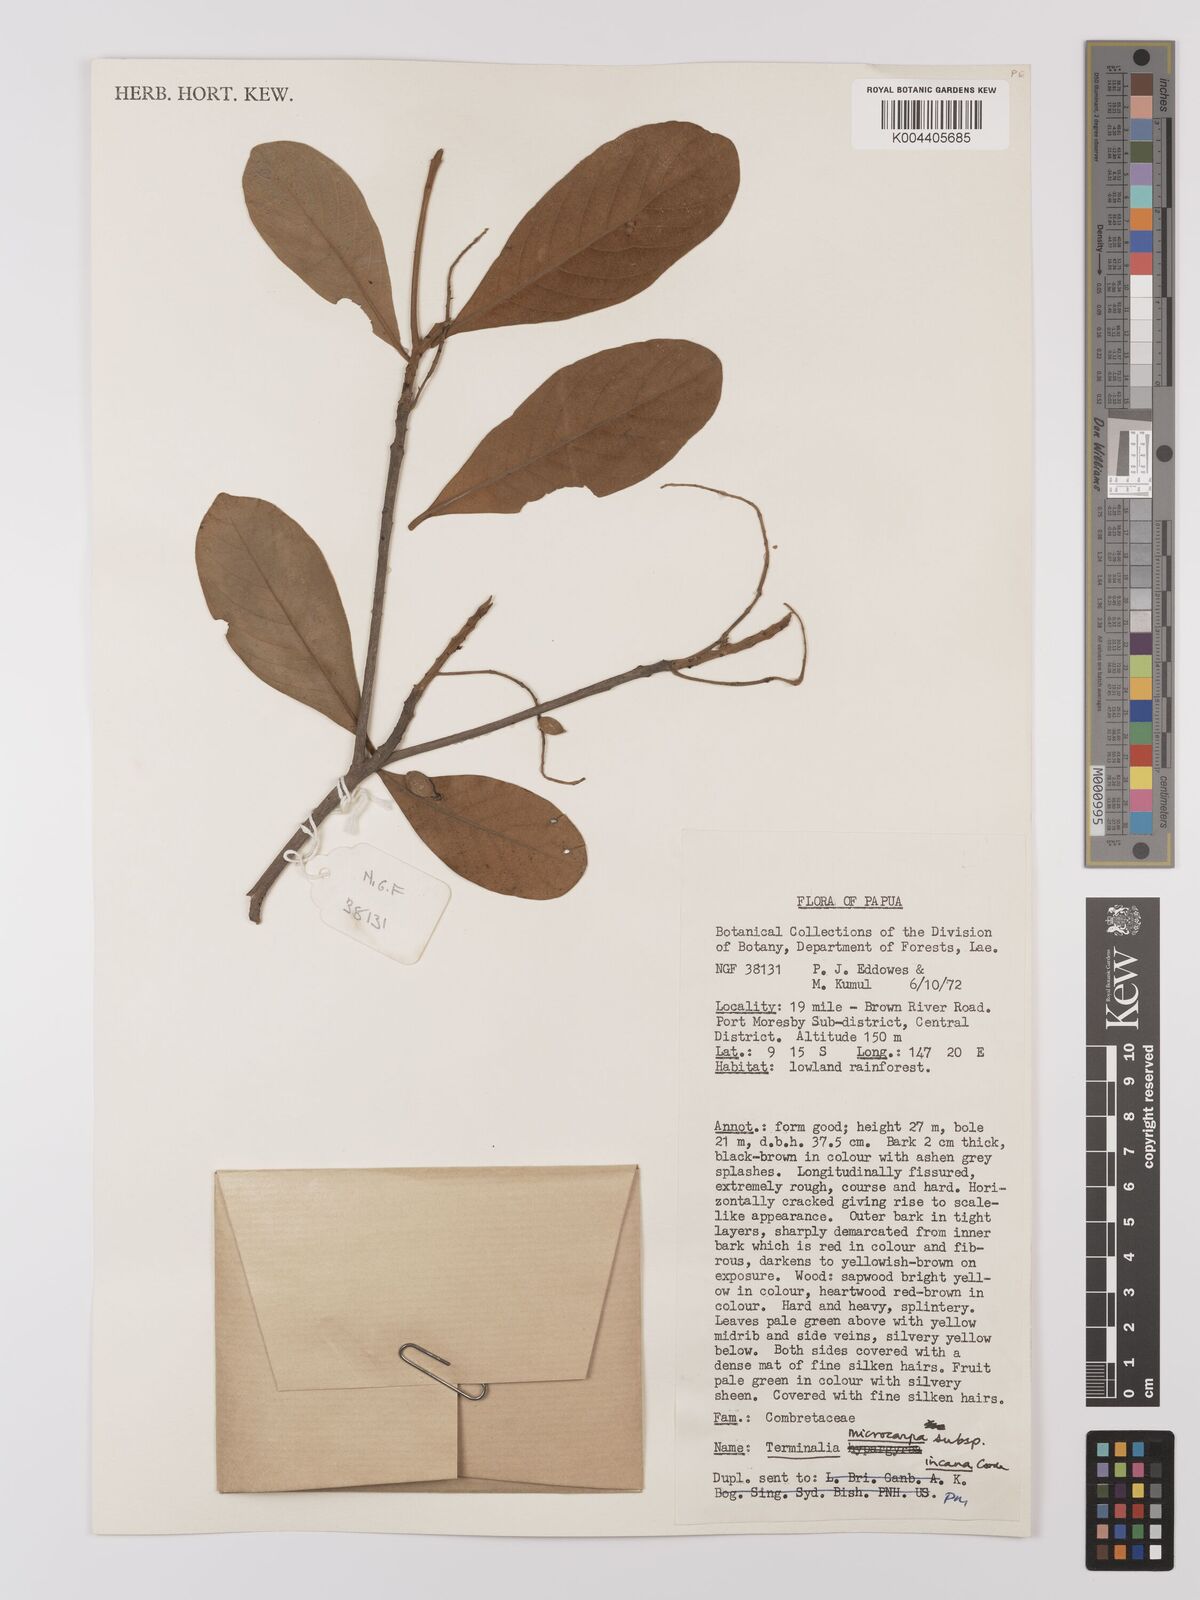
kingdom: Plantae
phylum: Tracheophyta
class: Magnoliopsida
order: Myrtales
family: Combretaceae
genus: Terminalia
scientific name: Terminalia microcarpa
